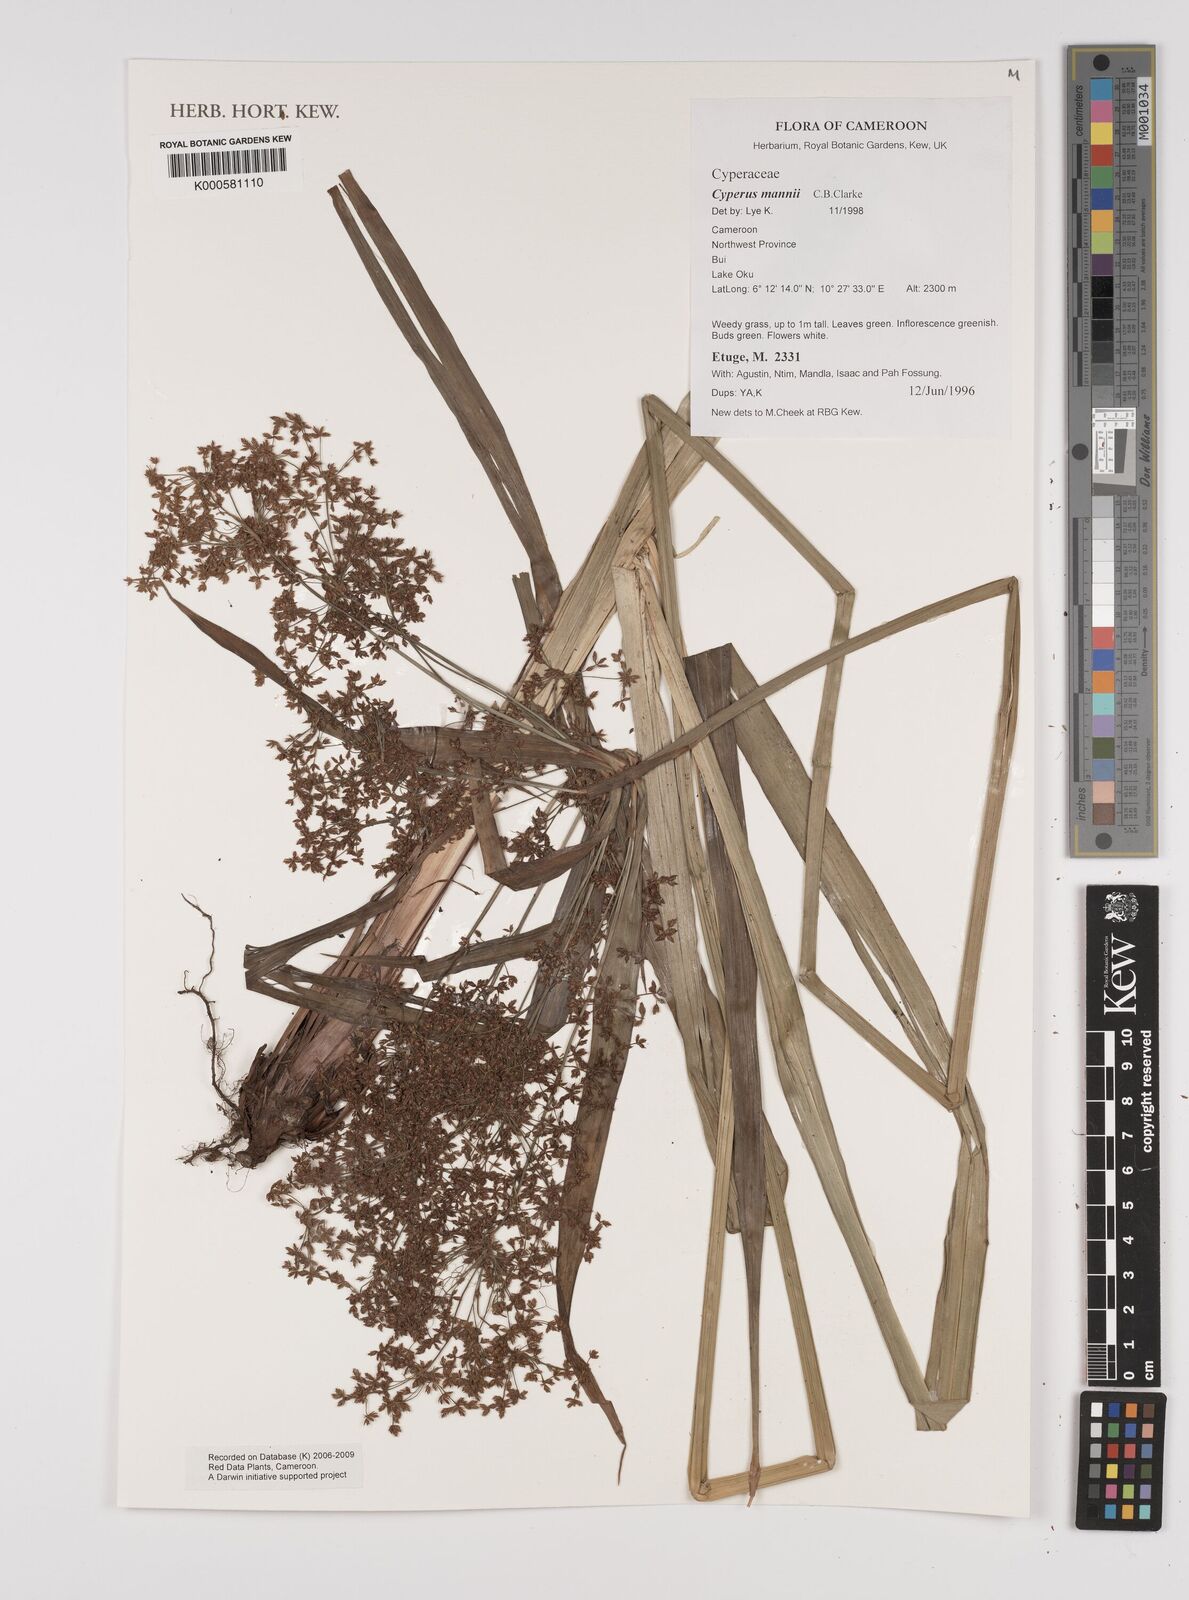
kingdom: Plantae
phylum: Tracheophyta
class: Liliopsida
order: Poales
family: Cyperaceae
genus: Cyperus
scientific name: Cyperus baronii
